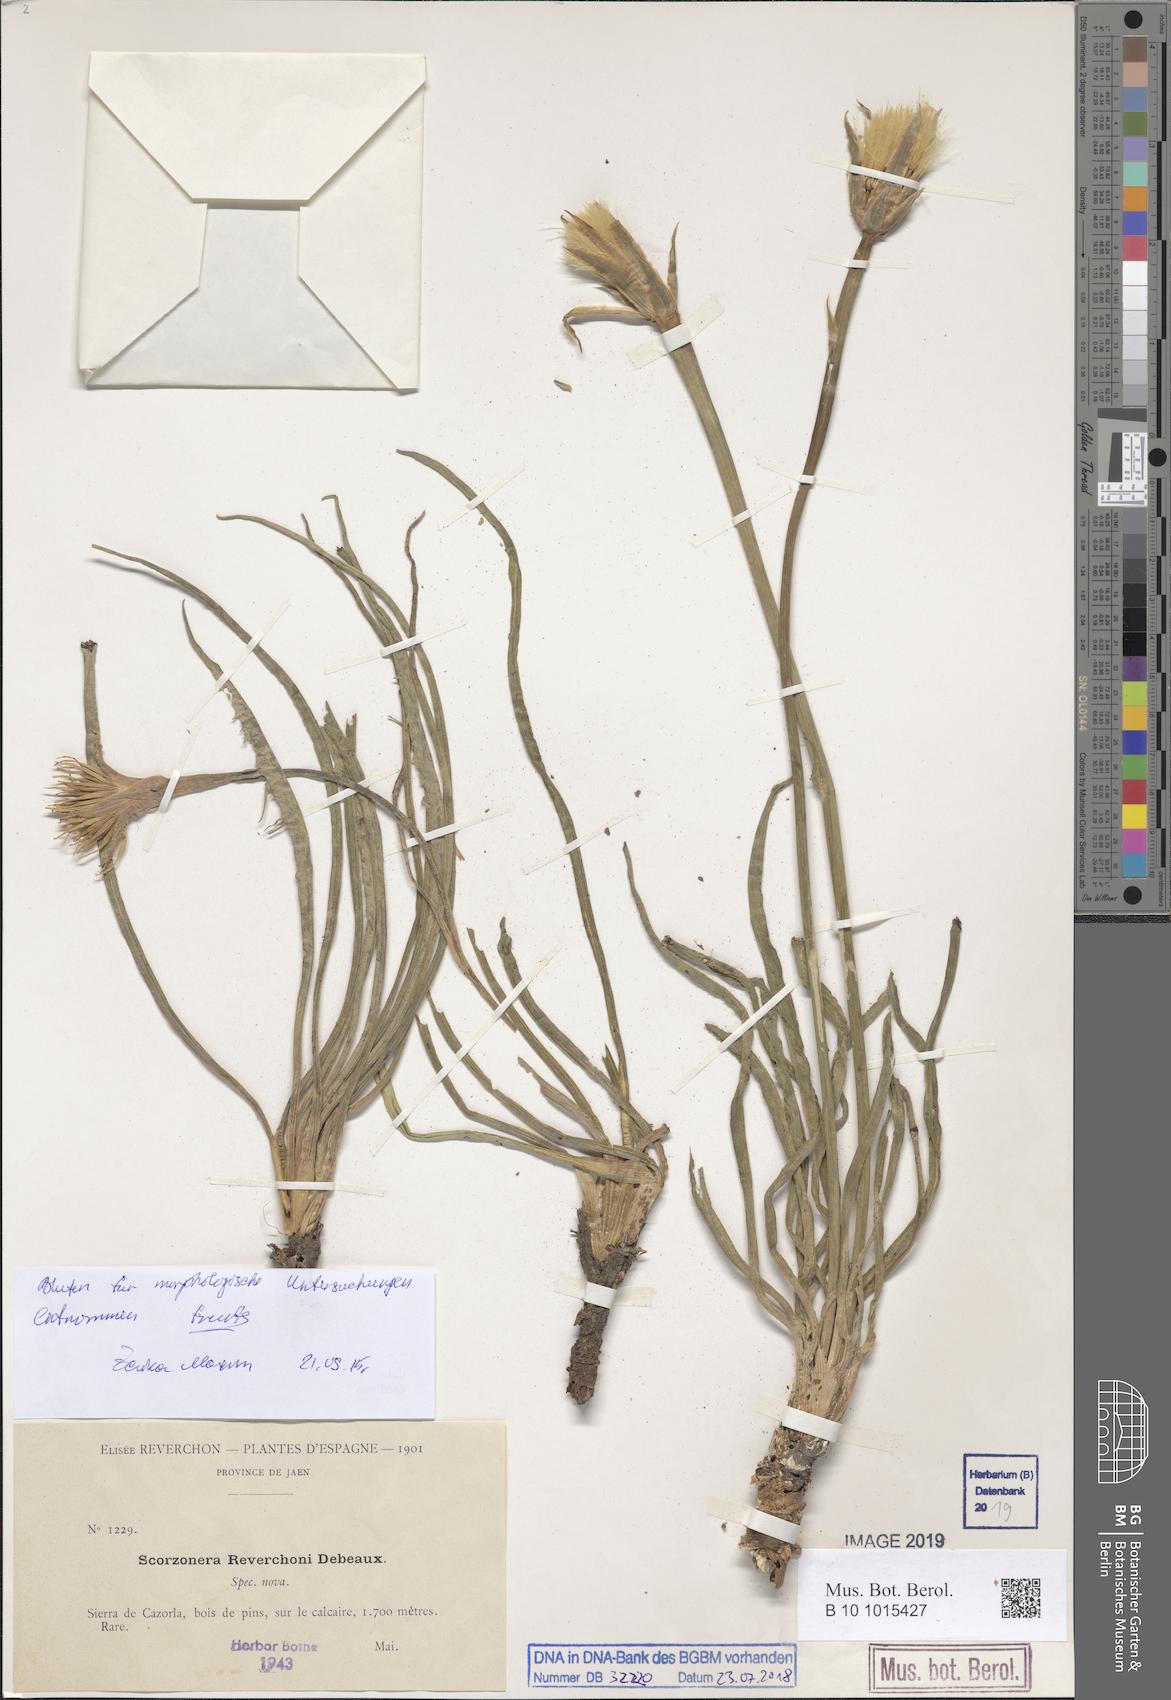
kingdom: Plantae
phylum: Tracheophyta
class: Magnoliopsida
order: Asterales
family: Asteraceae
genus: Pseudopodospermum
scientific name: Pseudopodospermum reverchonii
